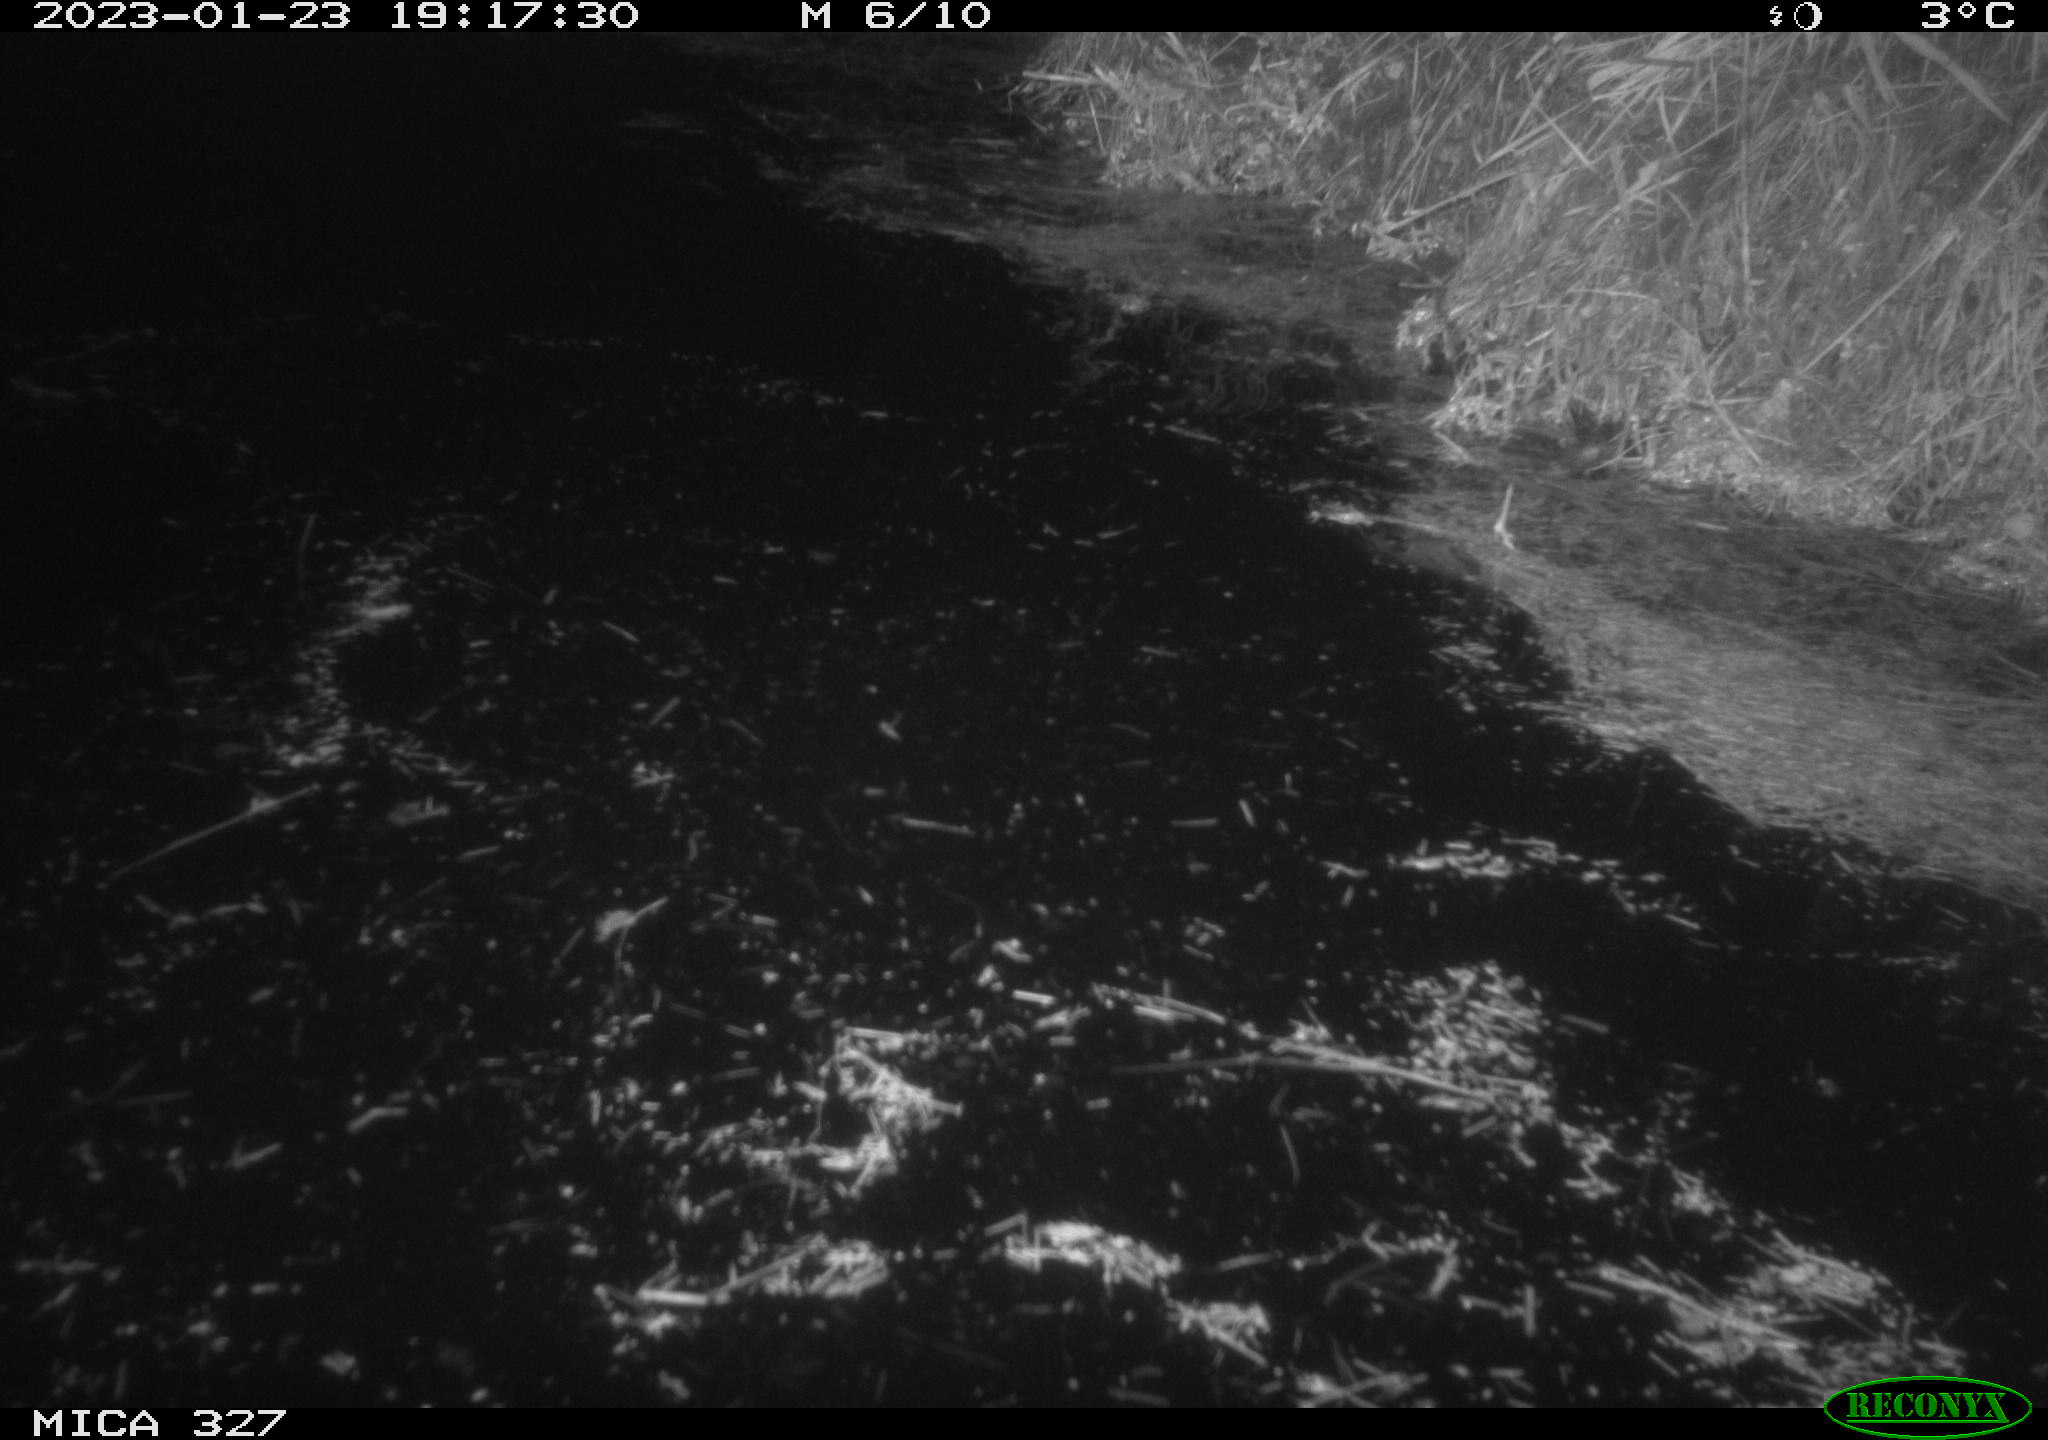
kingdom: Animalia
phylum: Chordata
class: Mammalia
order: Rodentia
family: Cricetidae
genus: Ondatra
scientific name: Ondatra zibethicus
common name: Muskrat
